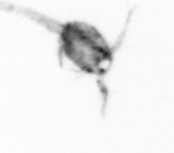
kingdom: Animalia
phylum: Arthropoda
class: Copepoda
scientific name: Copepoda
